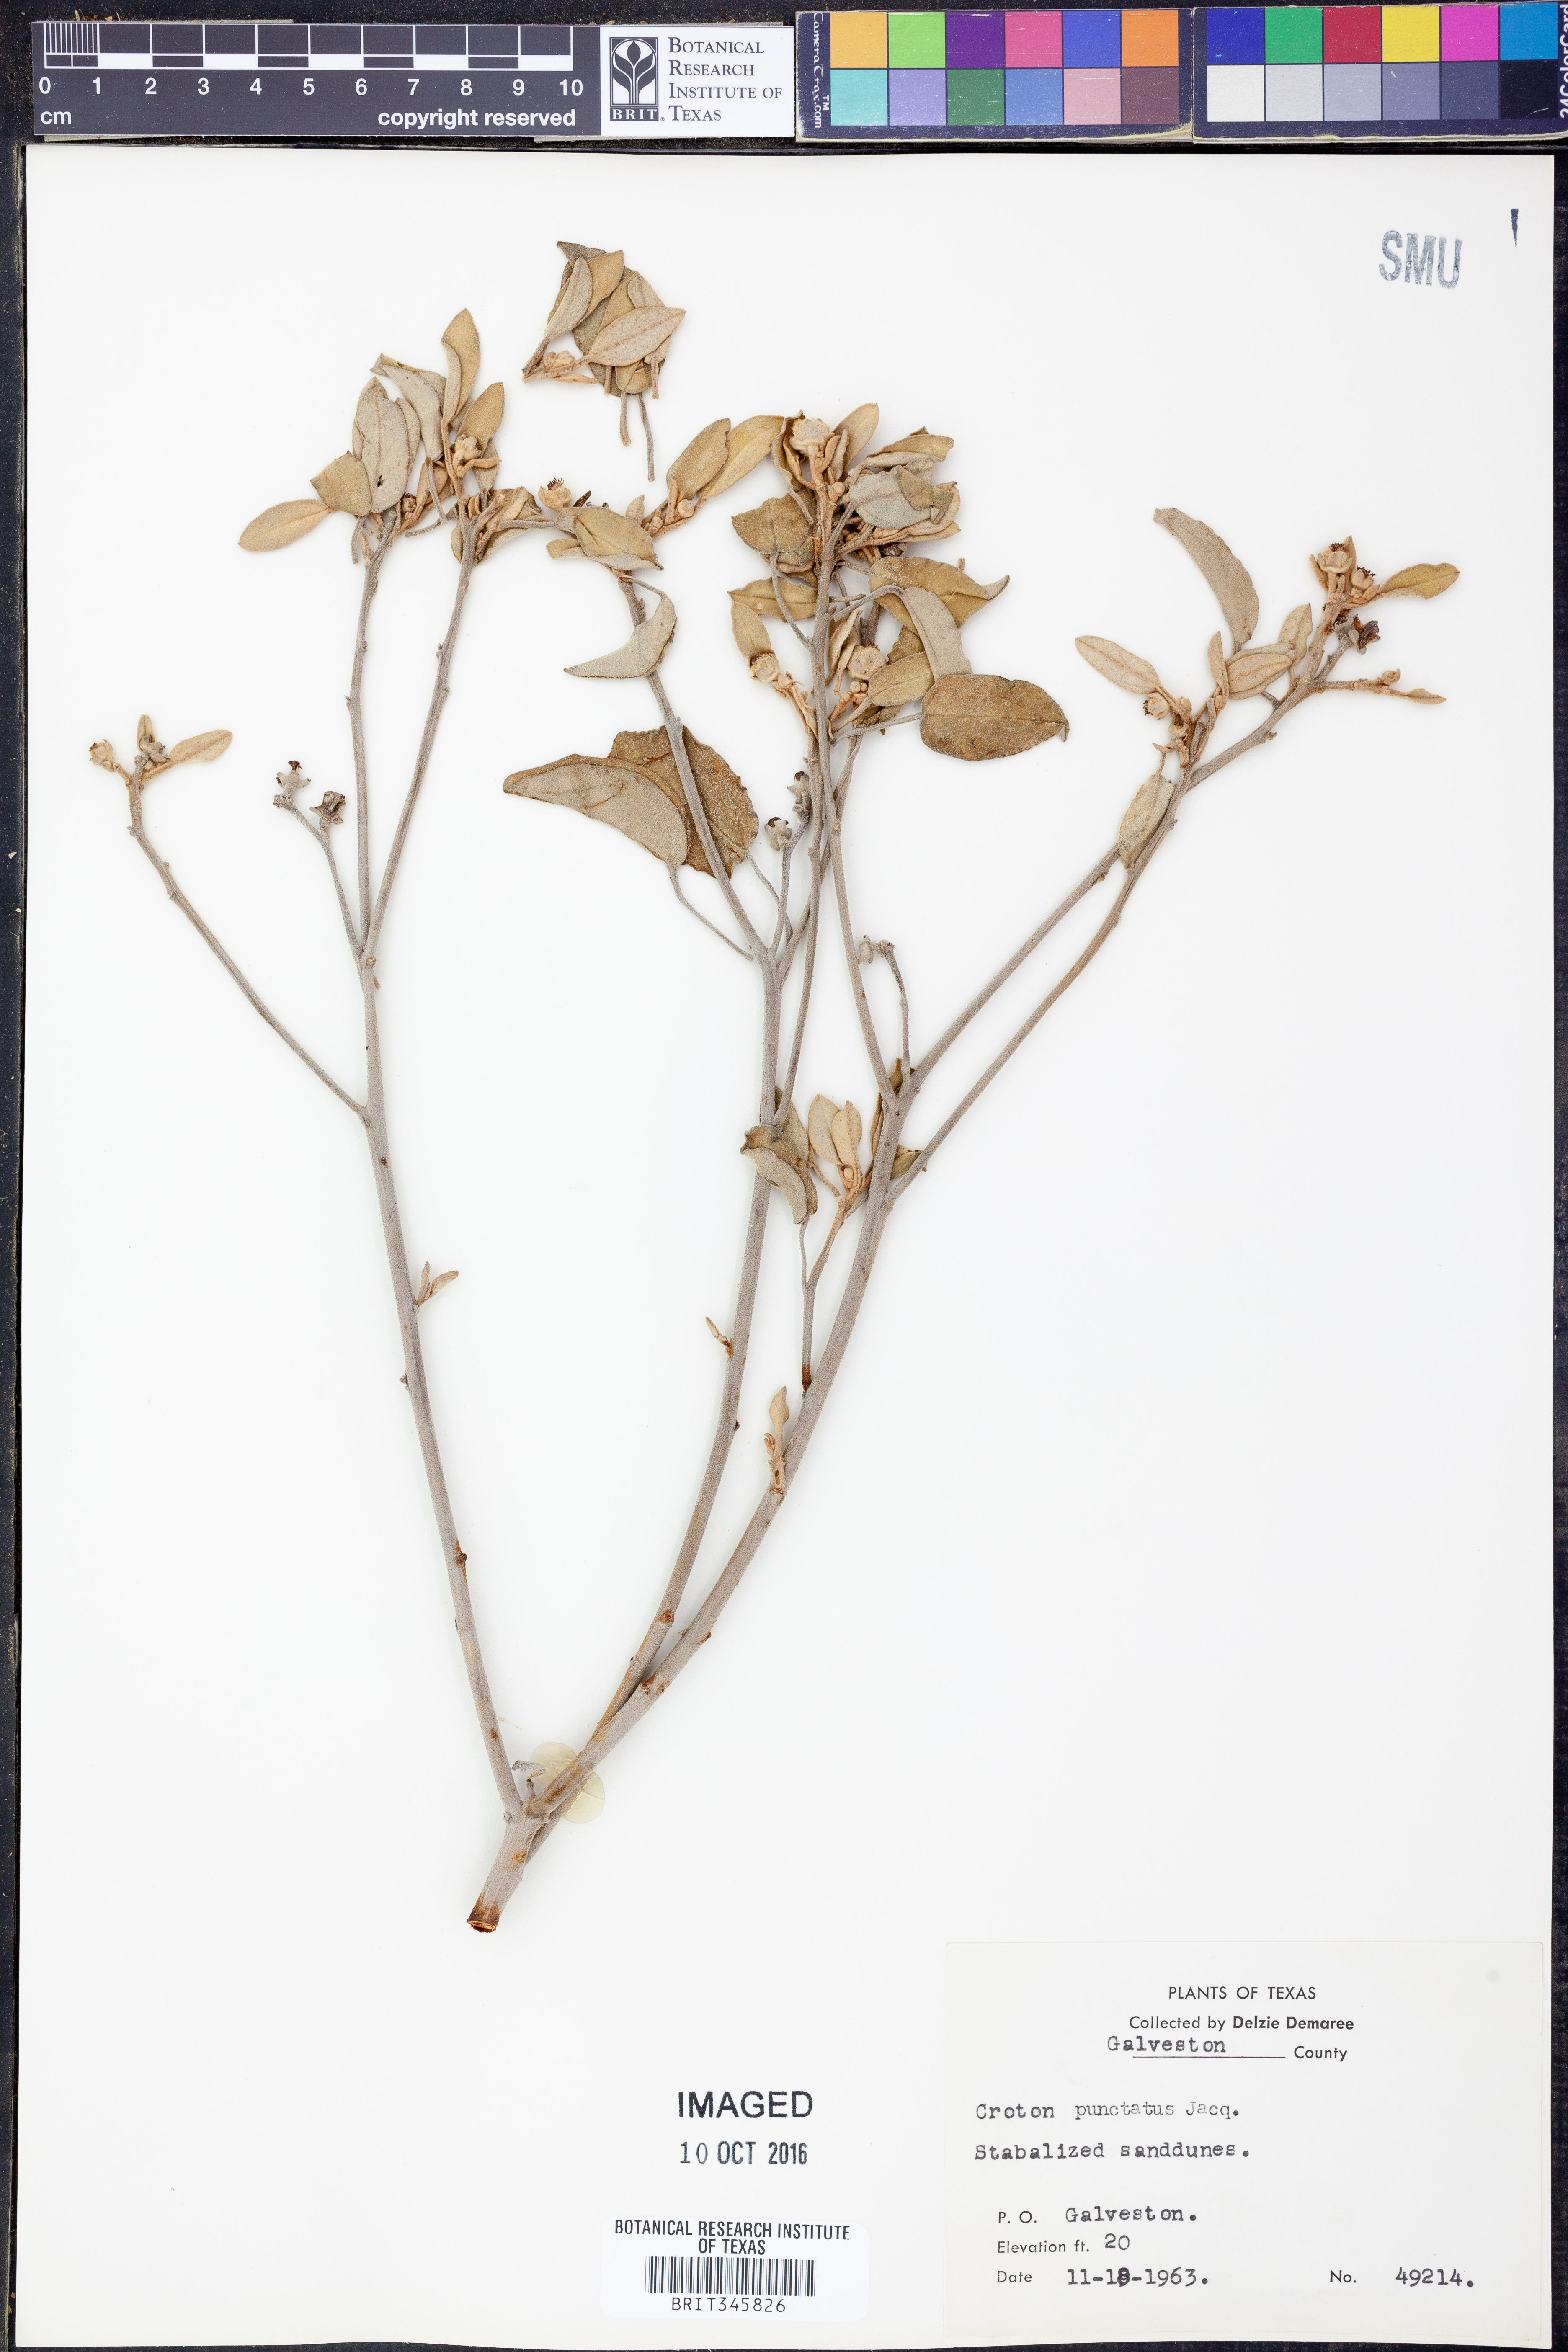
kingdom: Plantae
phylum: Tracheophyta
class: Magnoliopsida
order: Malpighiales
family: Euphorbiaceae
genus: Croton
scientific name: Croton punctatus
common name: Beach-tea
